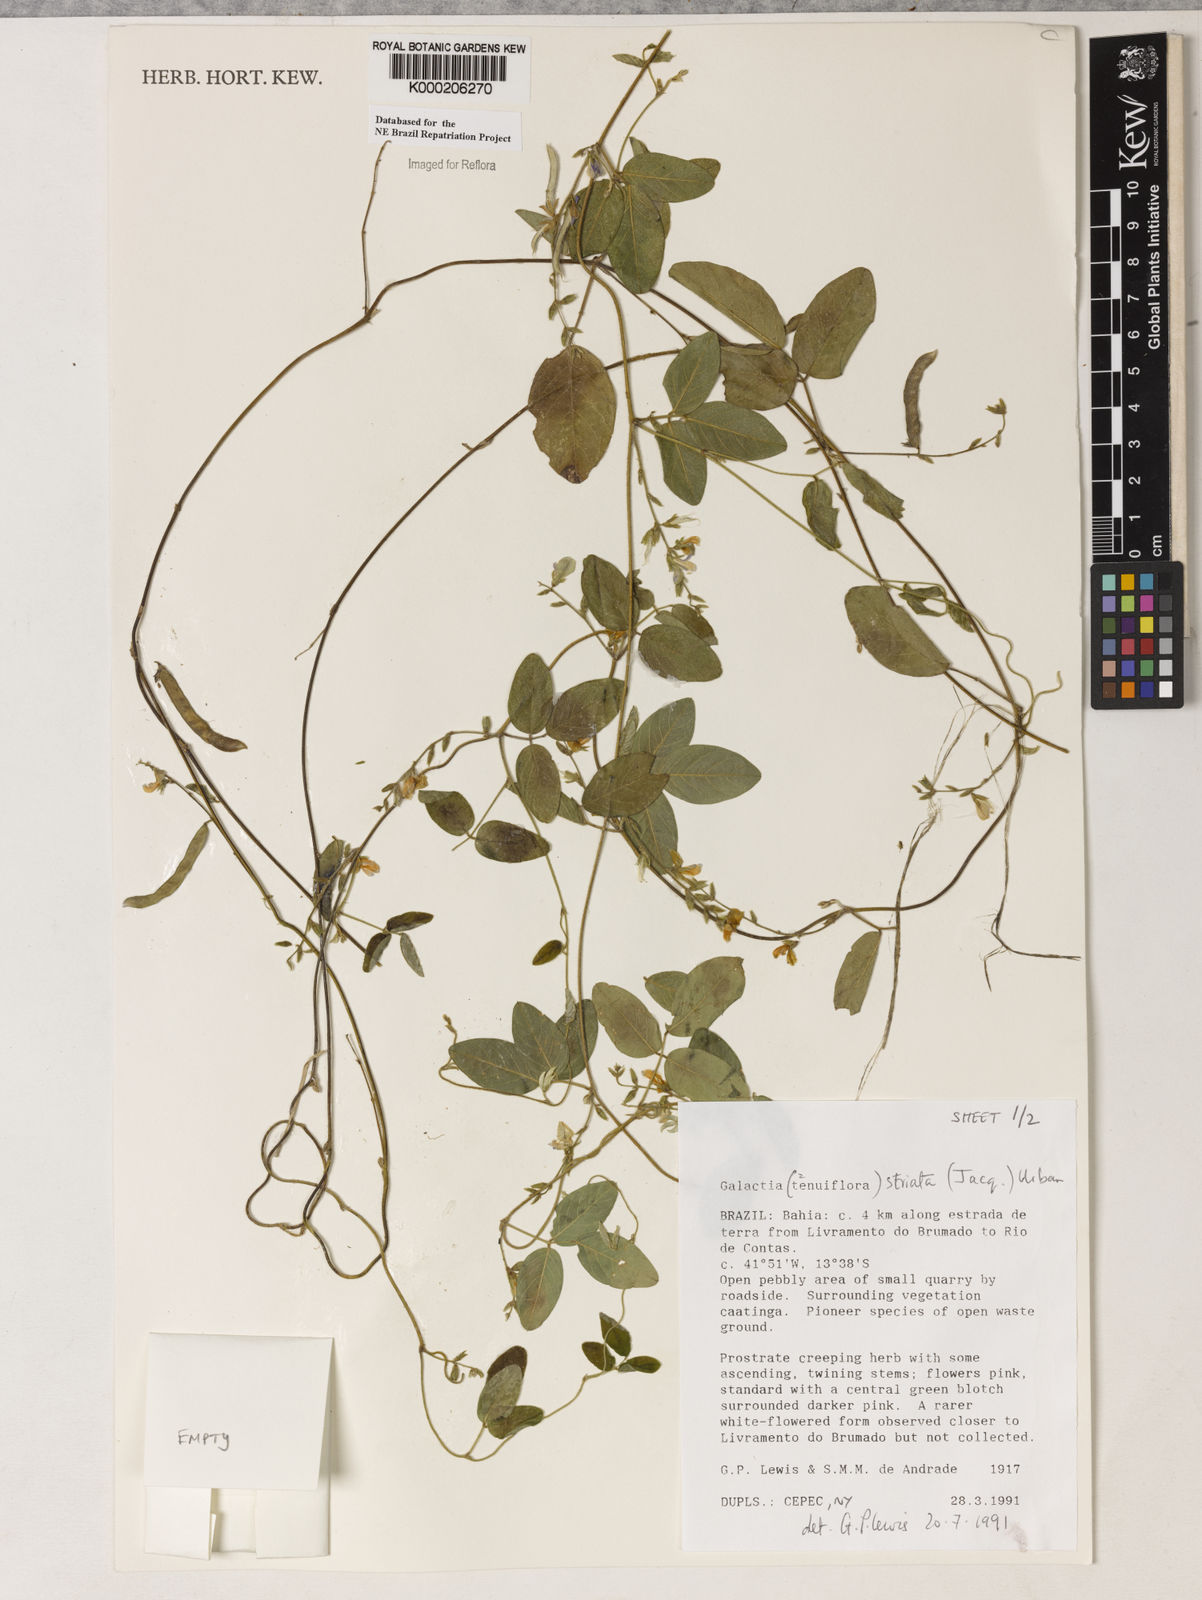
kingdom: Plantae
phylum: Tracheophyta
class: Magnoliopsida
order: Fabales
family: Fabaceae
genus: Galactia
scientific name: Galactia striata
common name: Florida hammock milkpea
